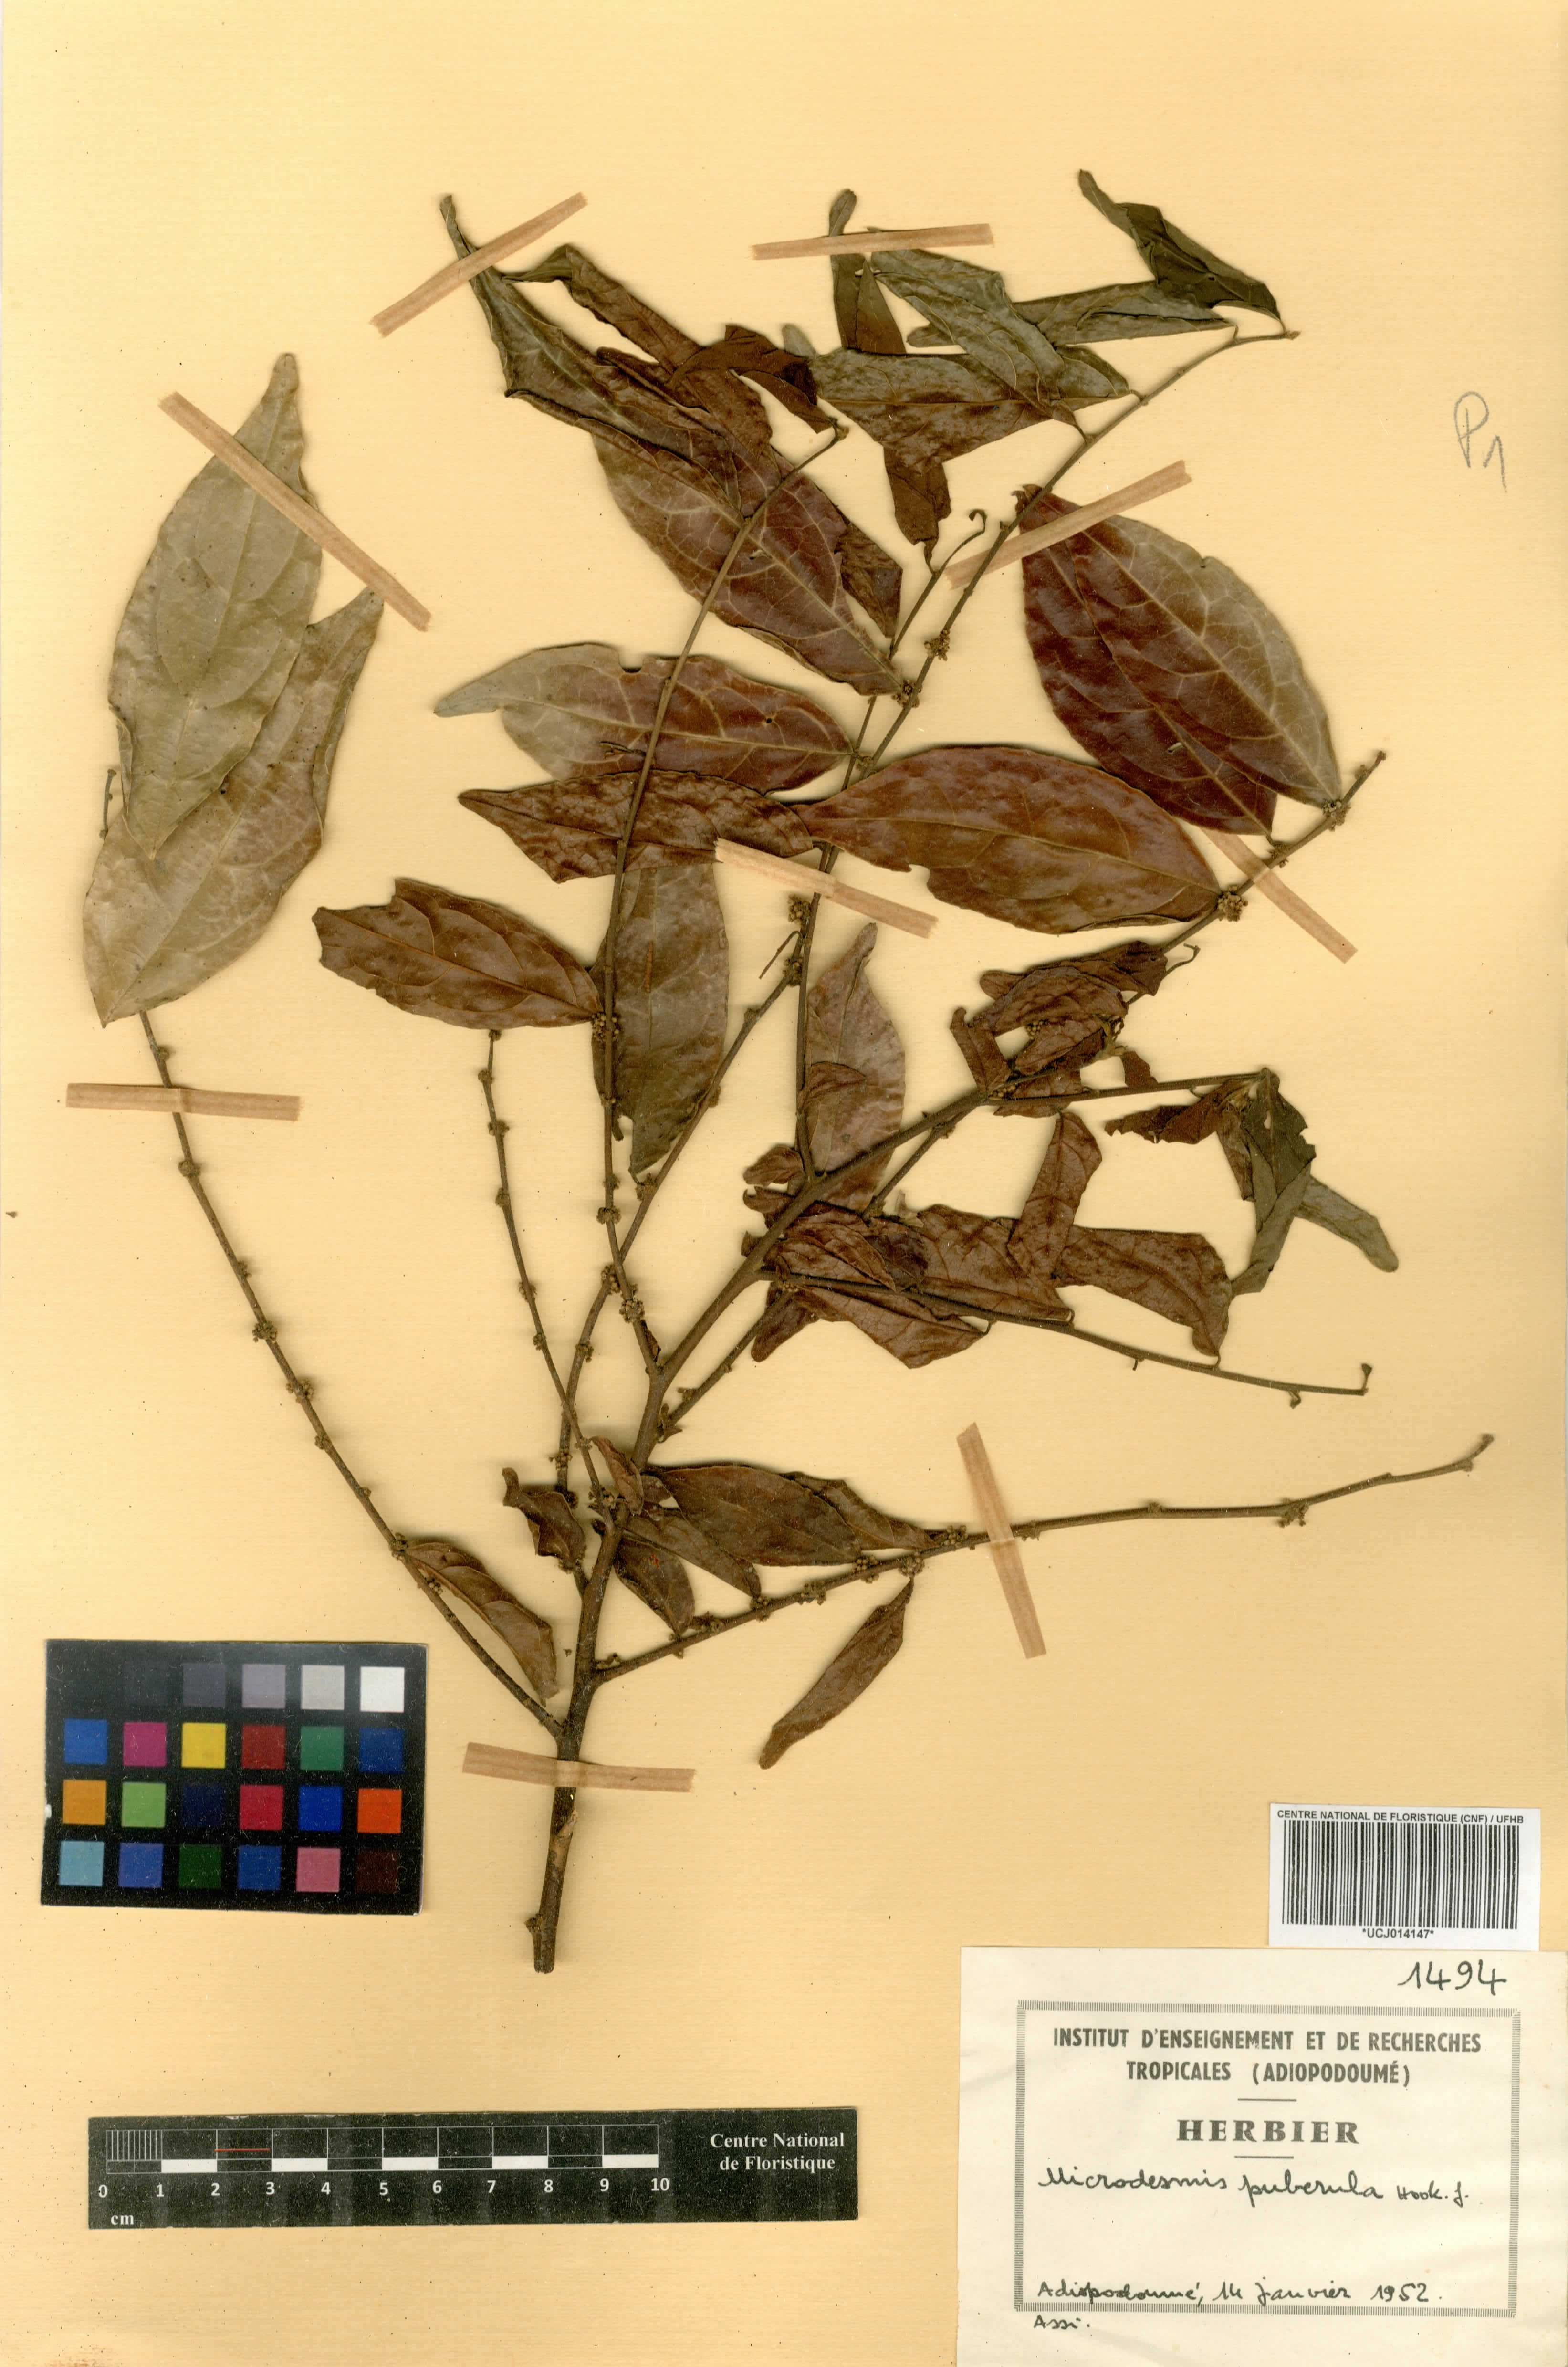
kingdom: Plantae
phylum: Tracheophyta
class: Magnoliopsida
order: Malpighiales
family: Pandaceae
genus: Microdesmis
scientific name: Microdesmis puberula
